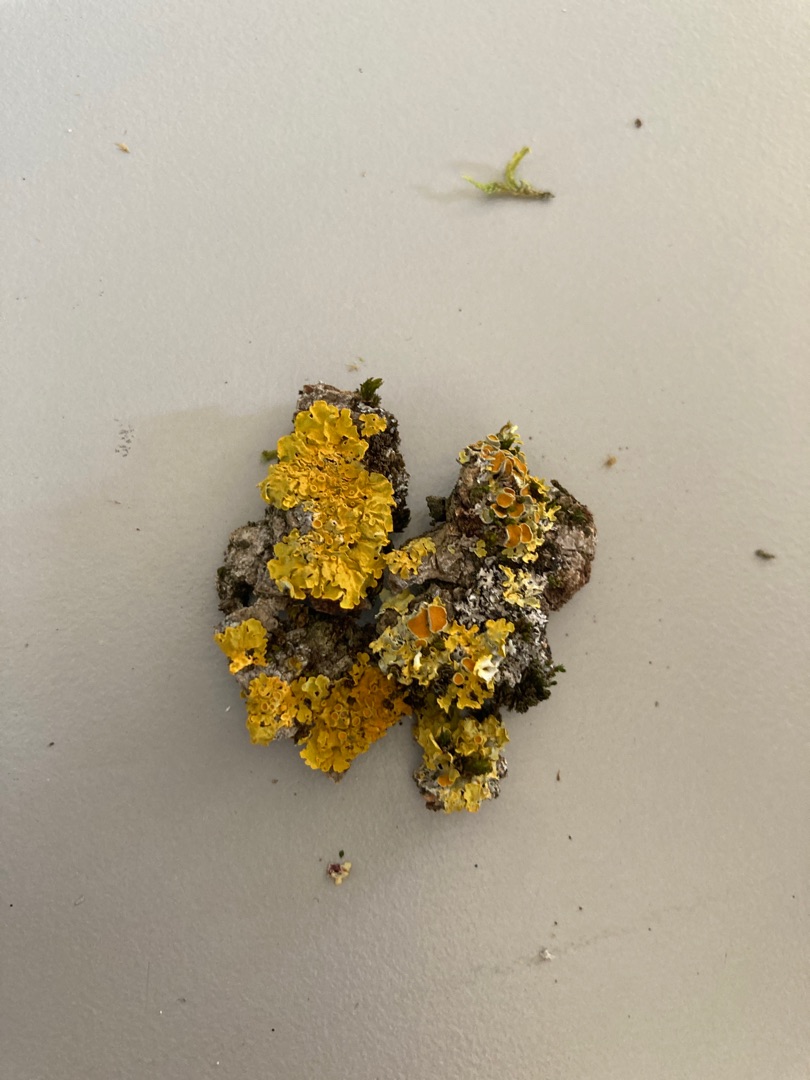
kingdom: Fungi
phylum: Ascomycota
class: Lecanoromycetes
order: Teloschistales
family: Teloschistaceae
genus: Xanthoria
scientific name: Xanthoria parietina
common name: Almindelig væggelav
